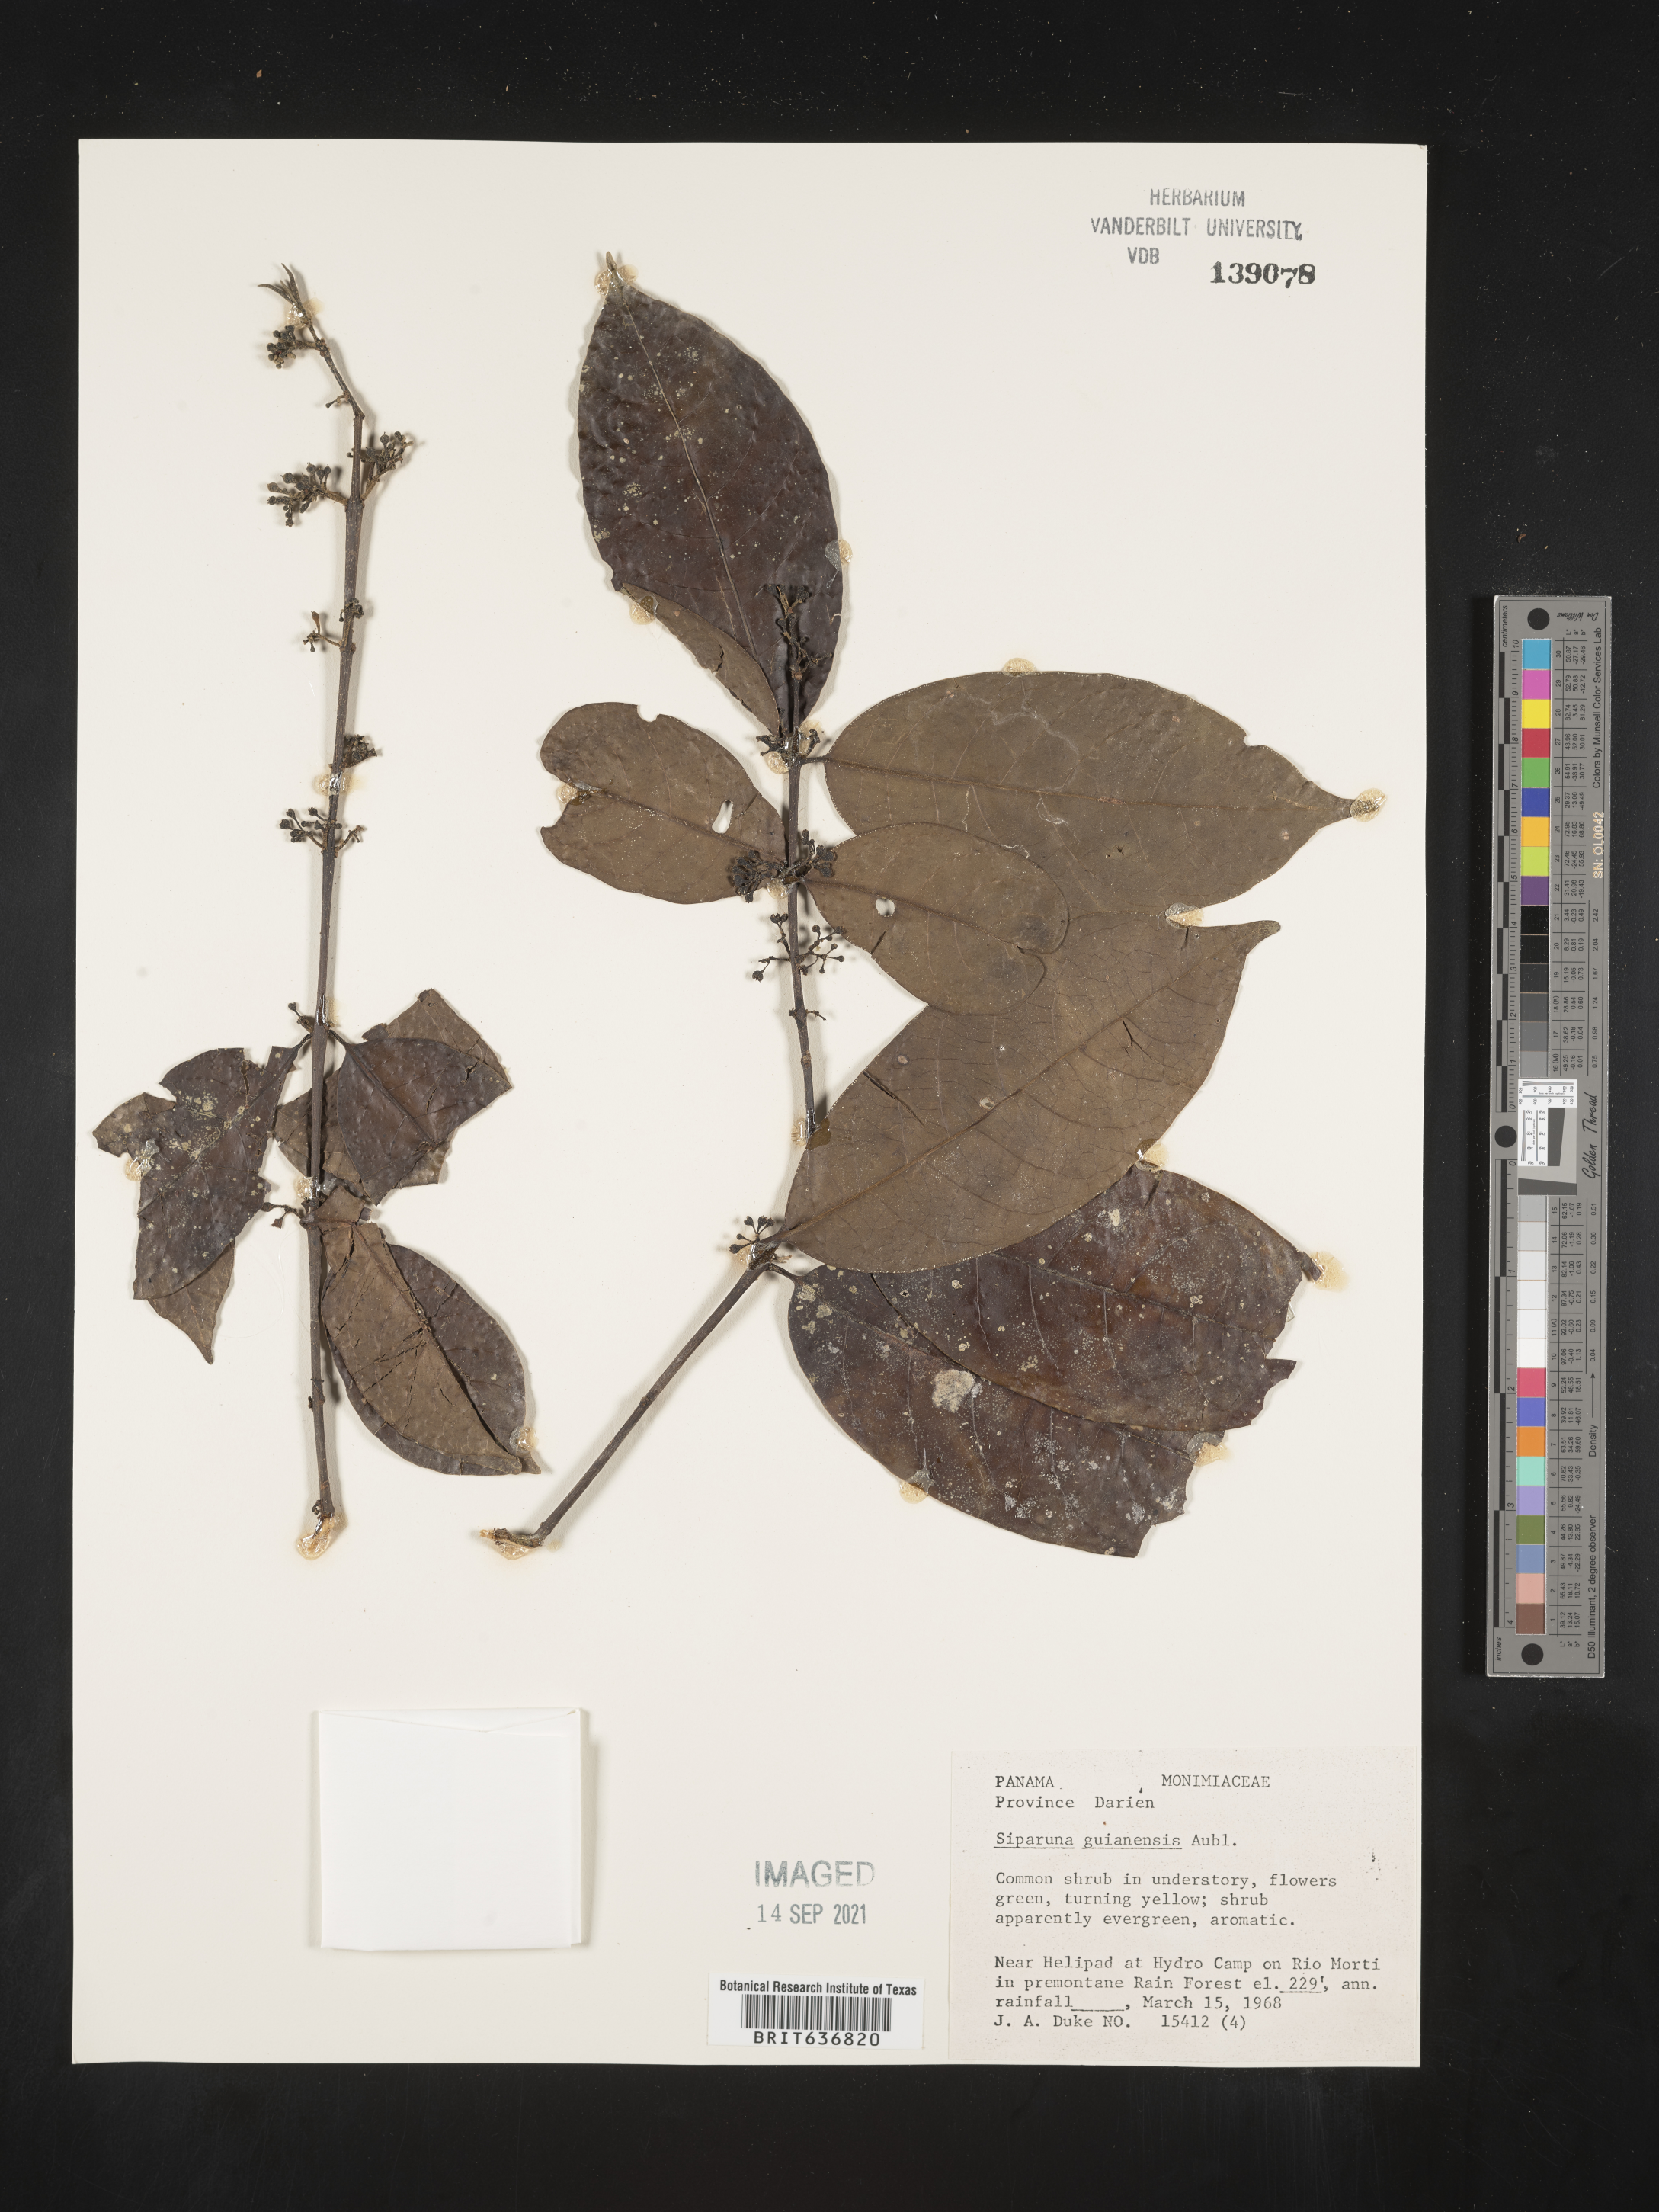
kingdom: Plantae
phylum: Tracheophyta
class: Magnoliopsida
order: Laurales
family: Siparunaceae
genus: Siparuna
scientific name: Siparuna
